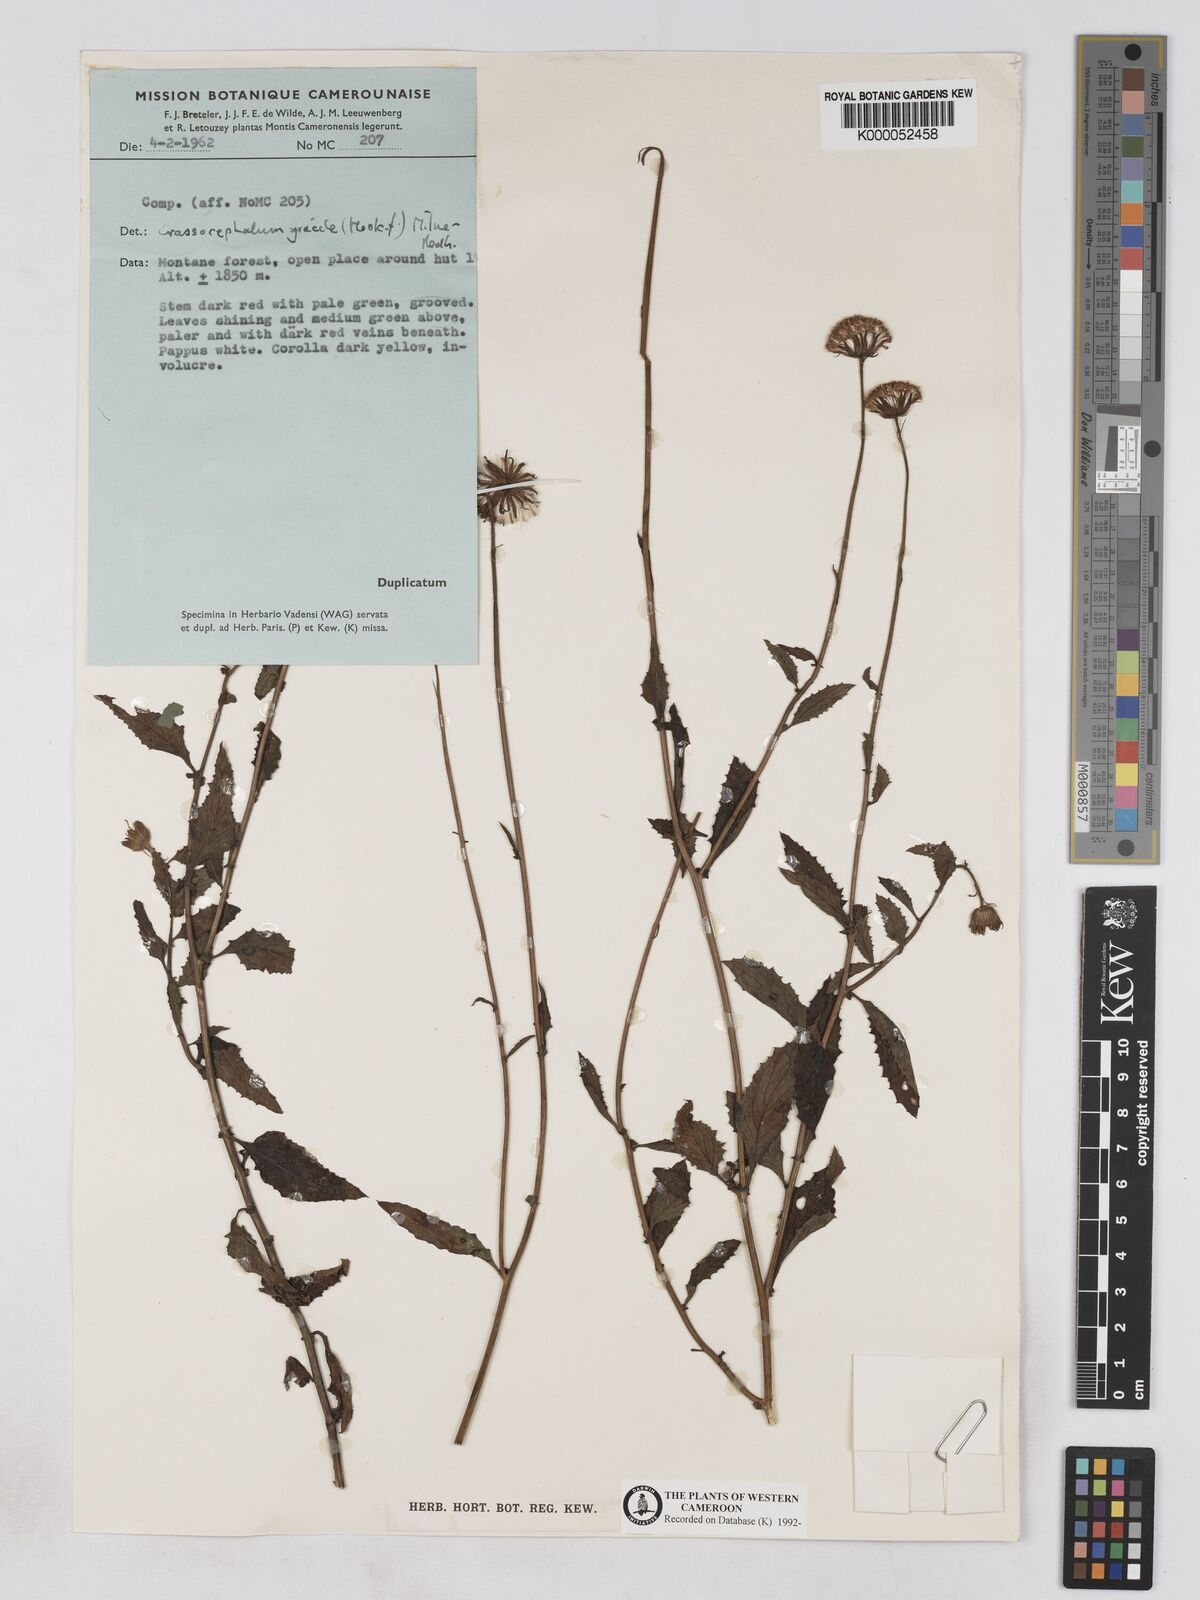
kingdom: Plantae
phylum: Tracheophyta
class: Magnoliopsida
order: Asterales
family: Asteraceae
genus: Crassocephalum
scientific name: Crassocephalum
